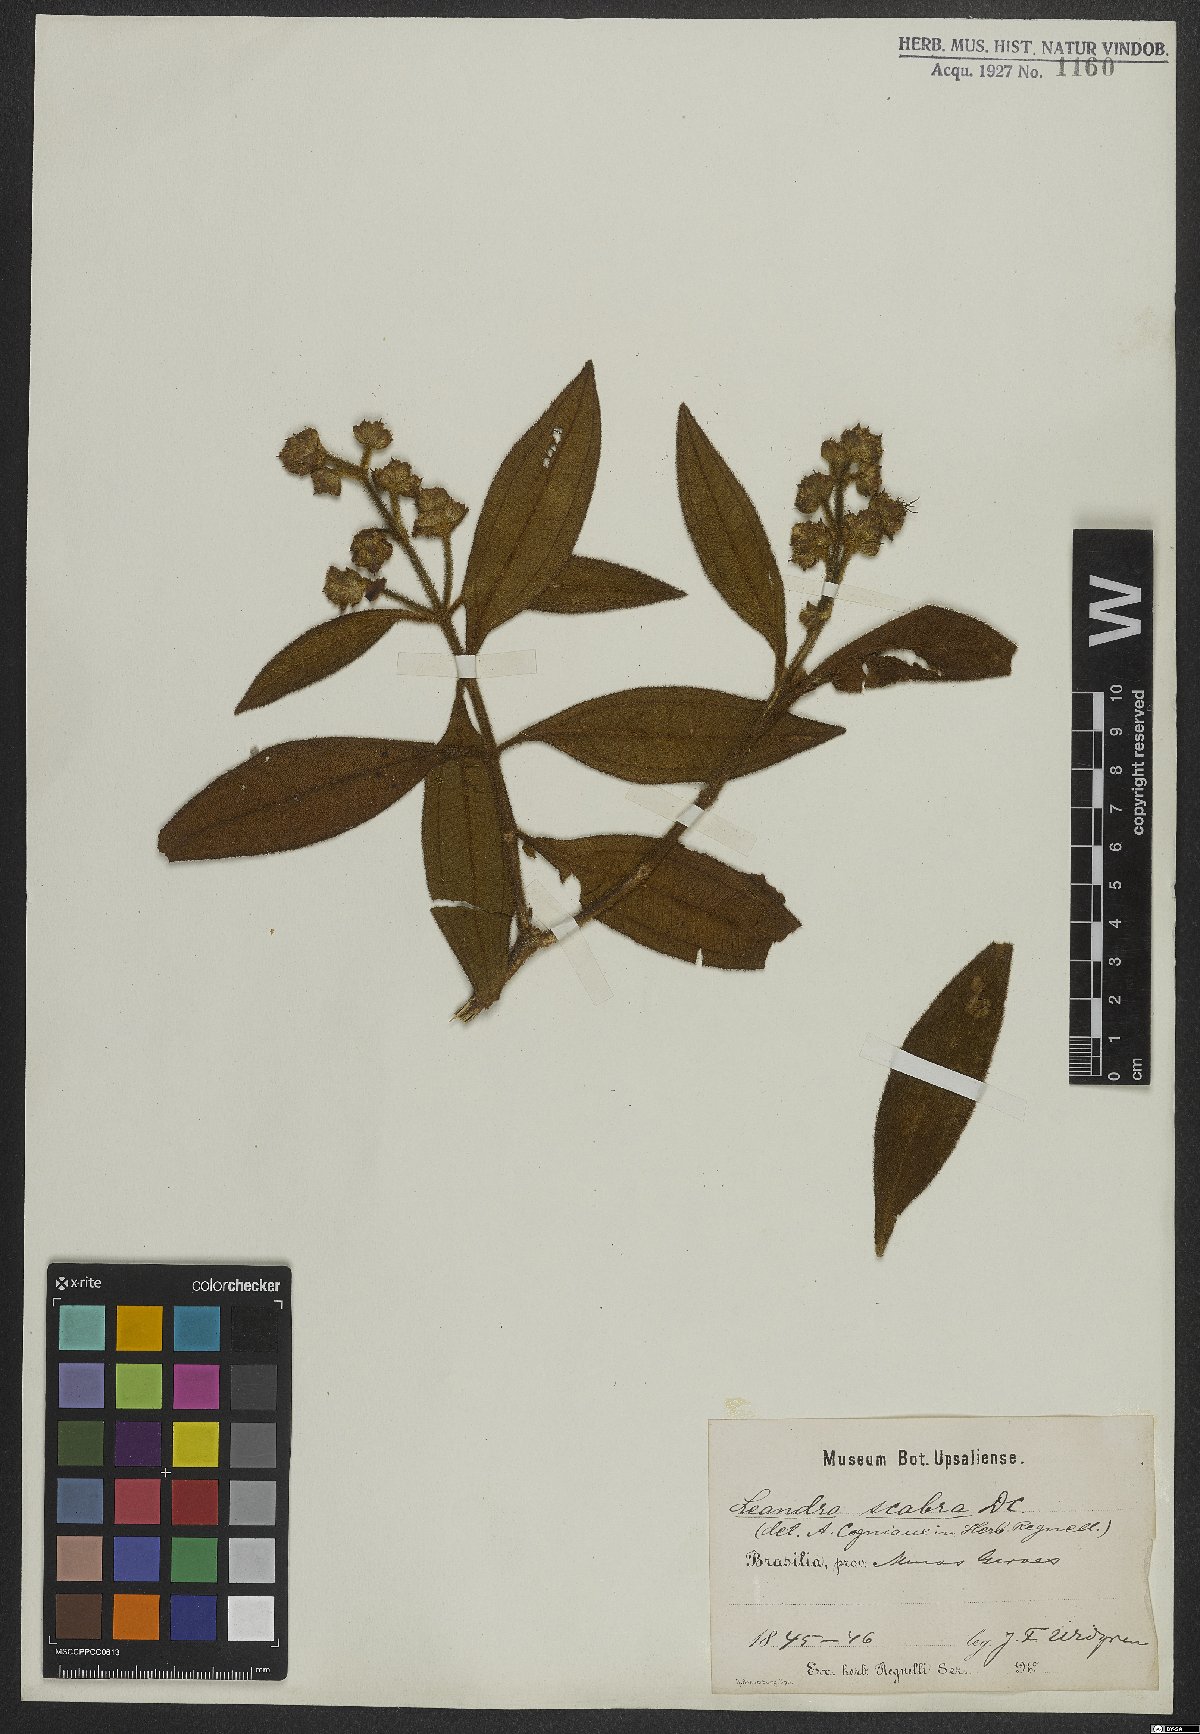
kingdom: Plantae
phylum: Tracheophyta
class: Magnoliopsida
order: Myrtales
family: Melastomataceae
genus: Miconia
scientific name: Miconia melastomoides
